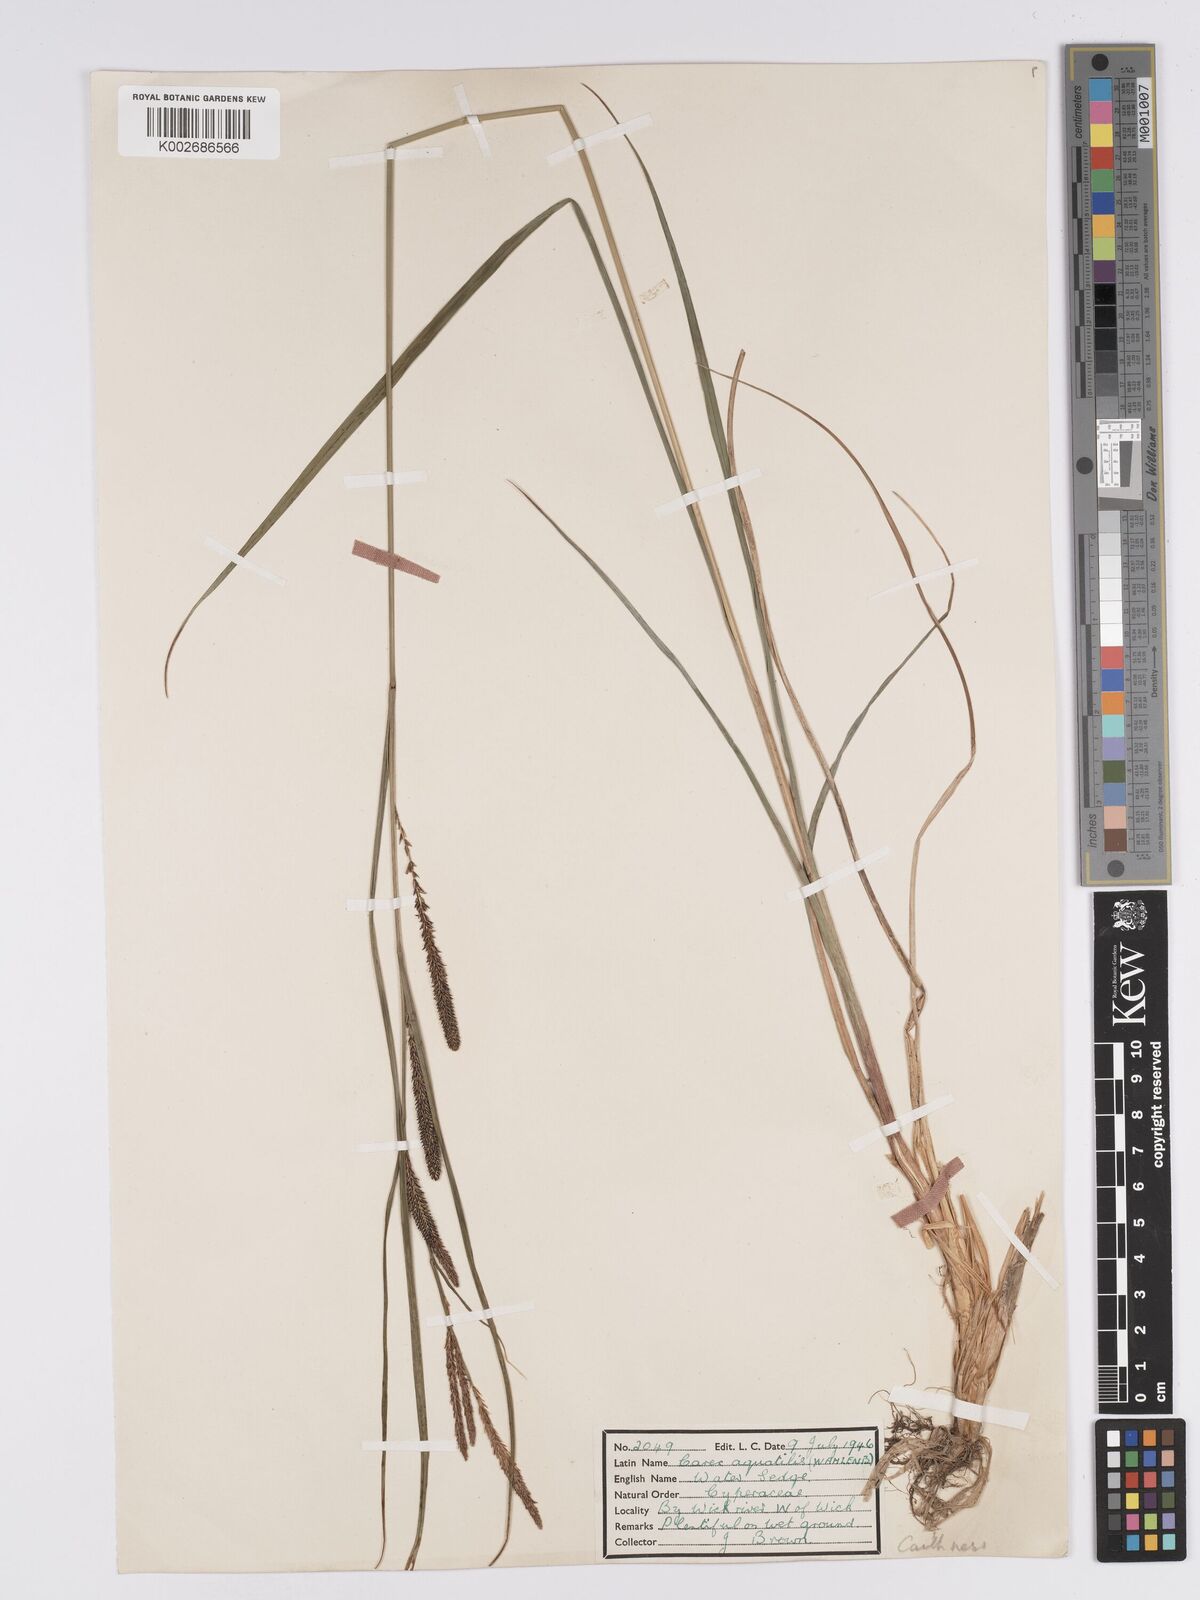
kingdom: Plantae
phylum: Tracheophyta
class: Liliopsida
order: Poales
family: Cyperaceae
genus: Carex
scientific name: Carex aquatilis
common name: Water sedge
